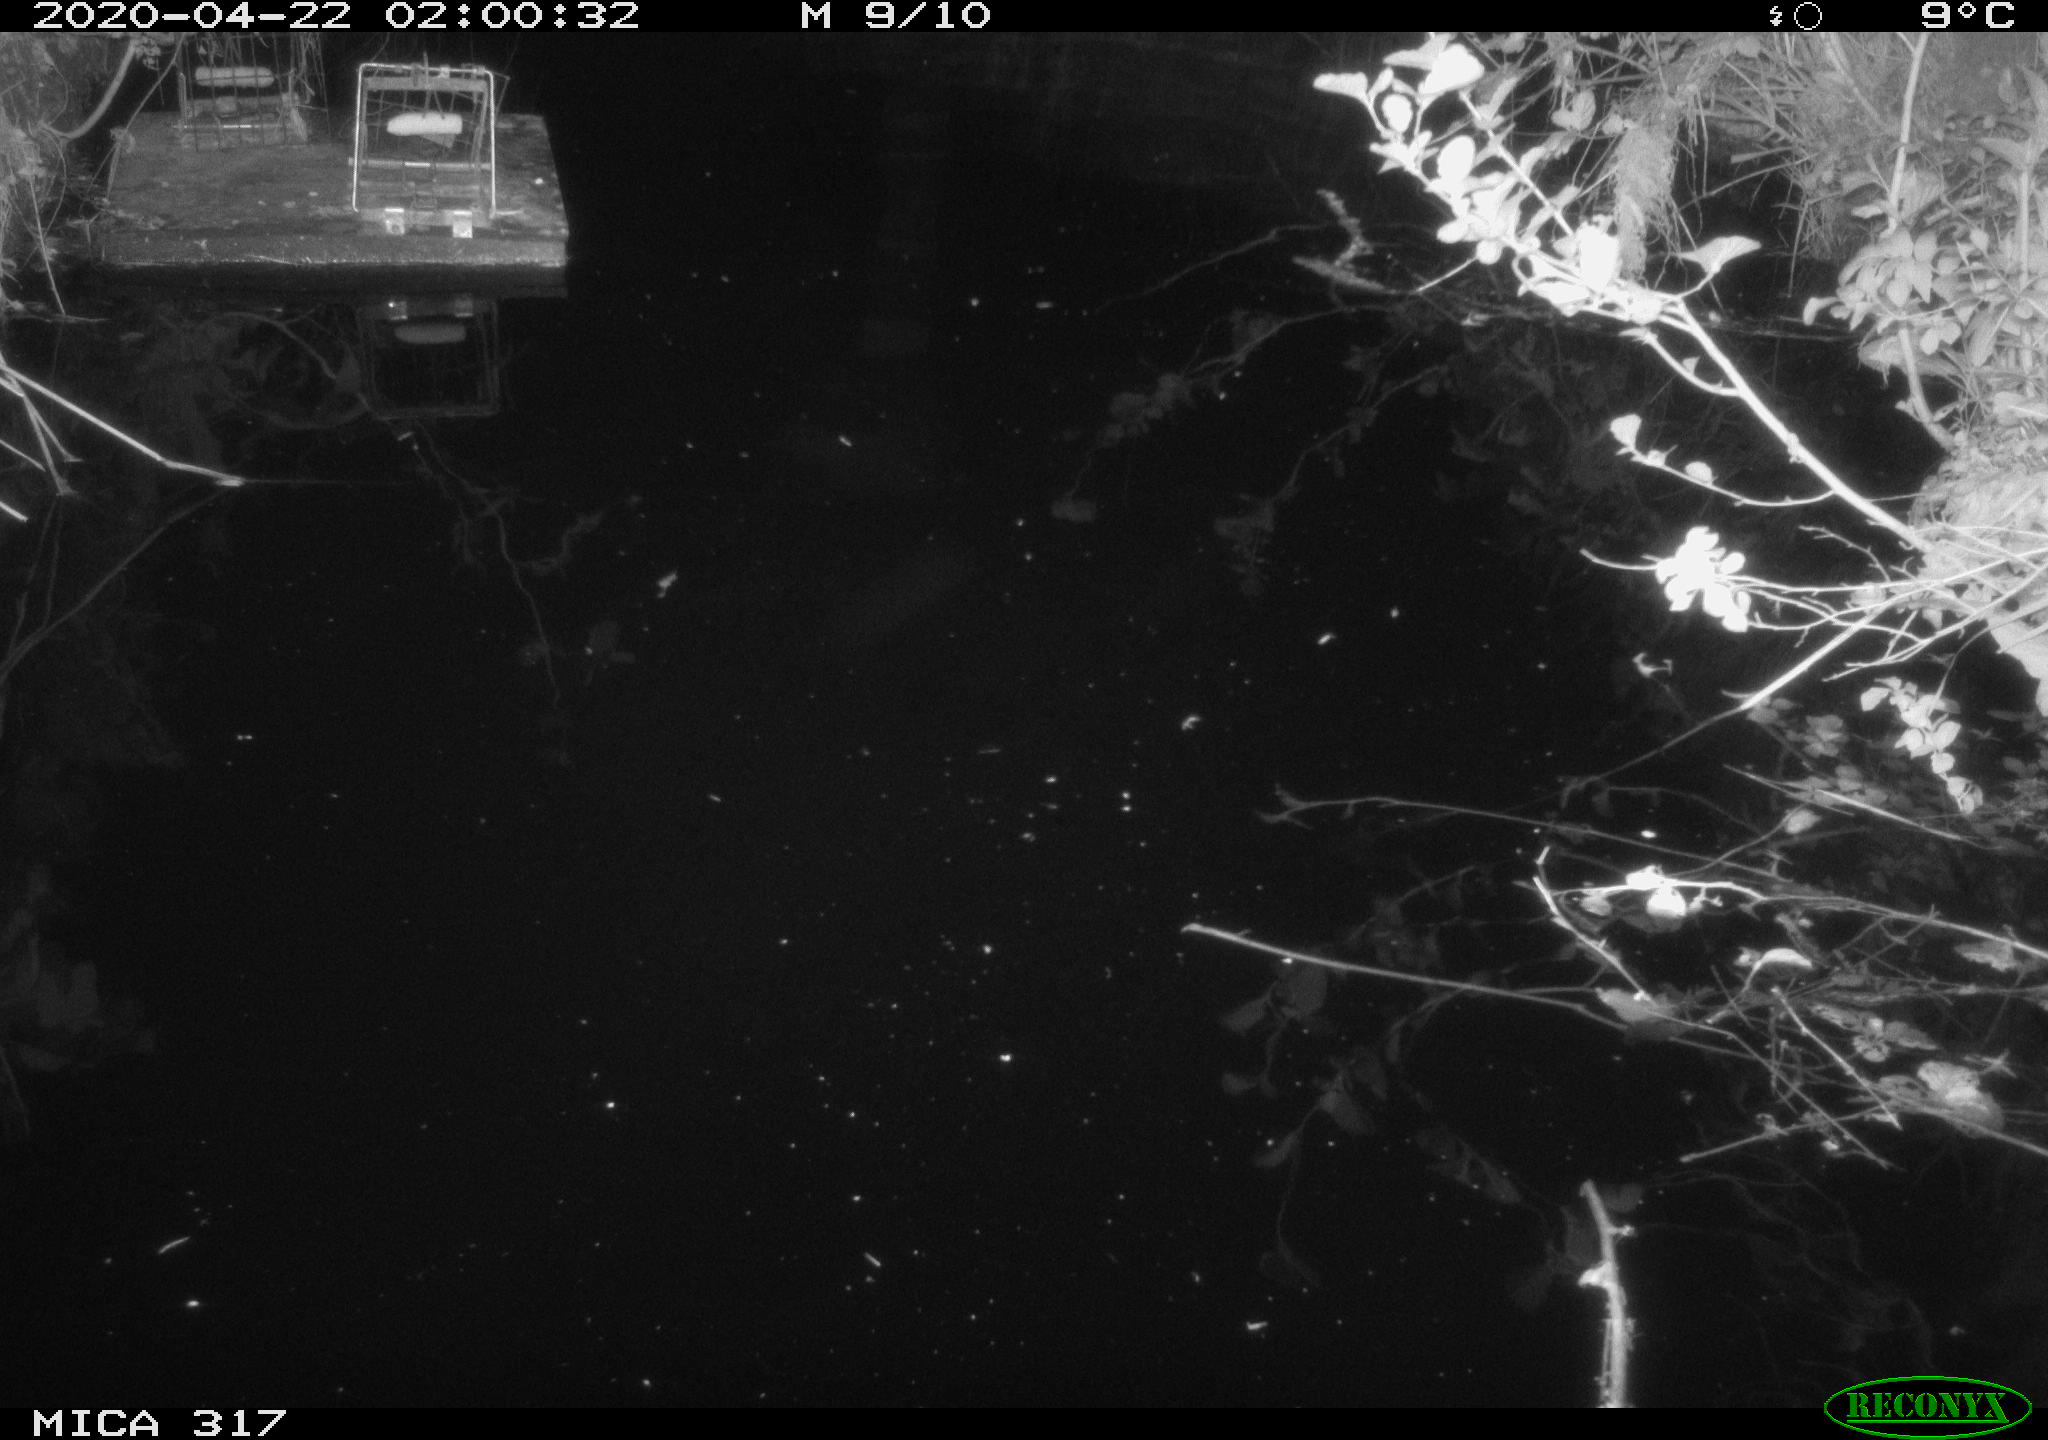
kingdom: Animalia
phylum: Chordata
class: Aves
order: Anseriformes
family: Anatidae
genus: Anas
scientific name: Anas platyrhynchos
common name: Mallard
